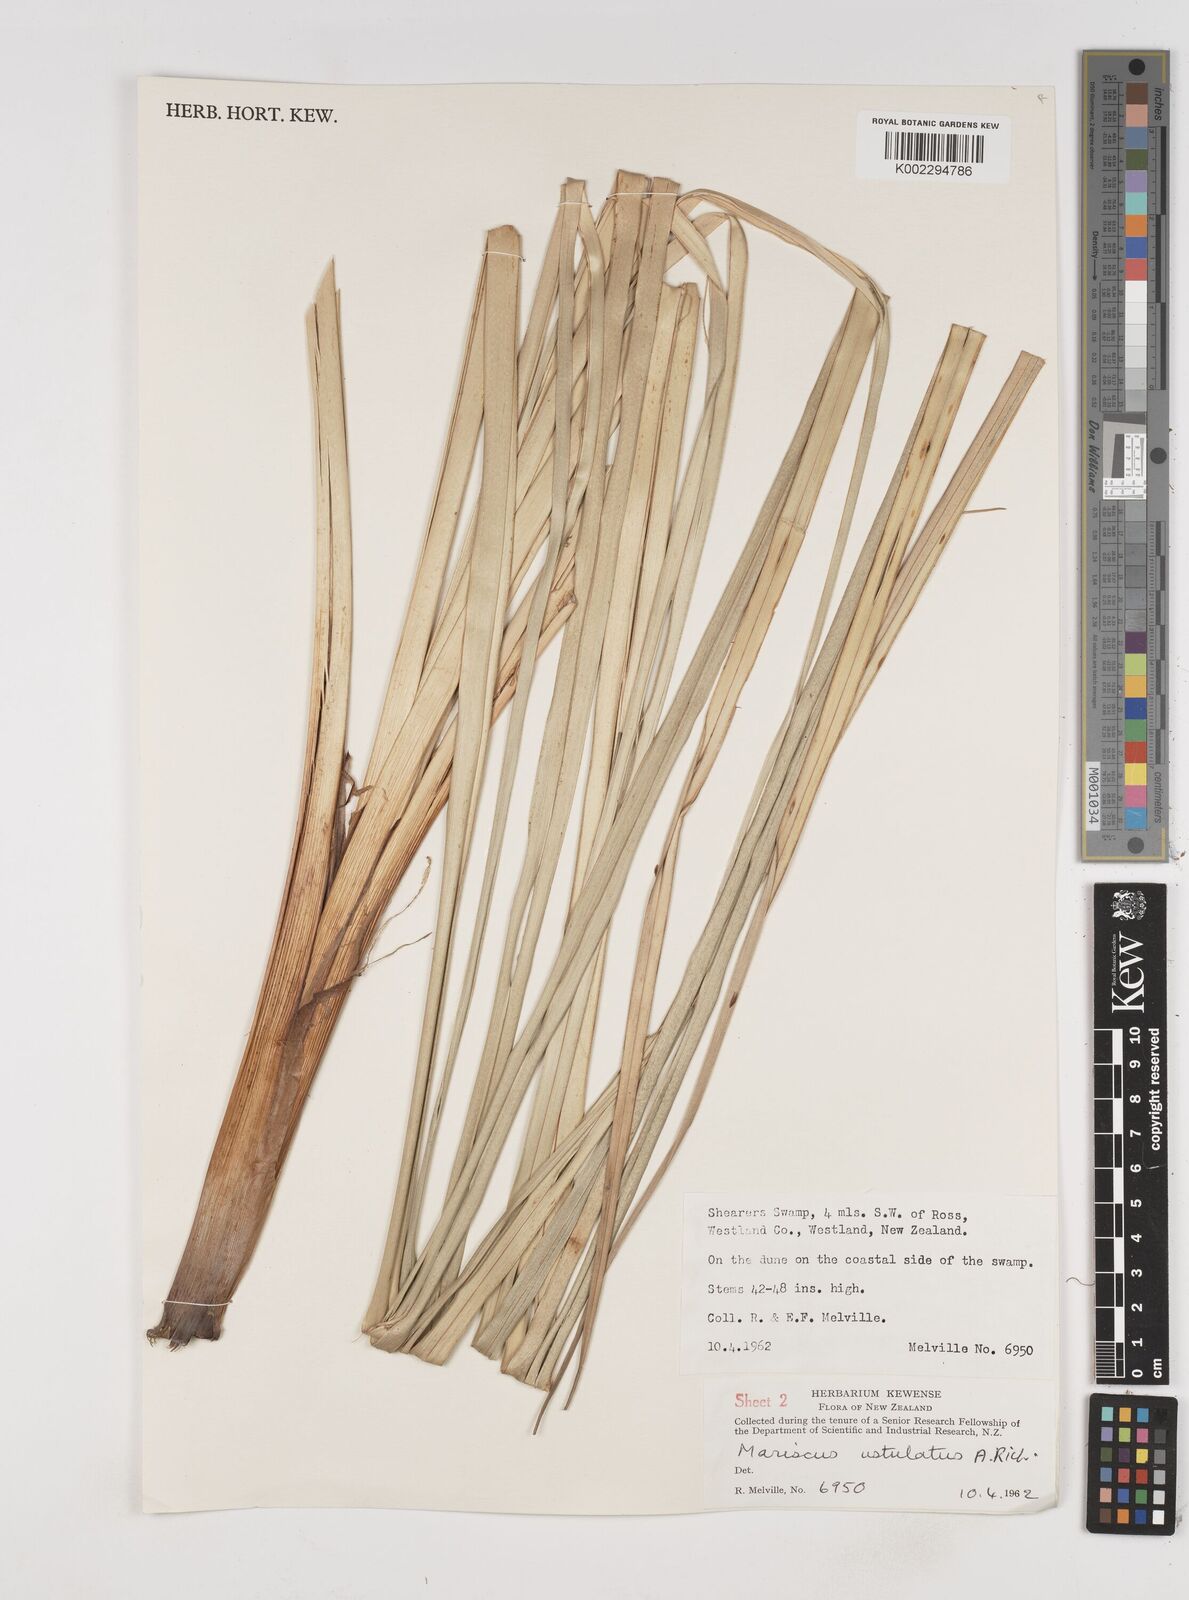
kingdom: Plantae
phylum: Tracheophyta
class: Liliopsida
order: Poales
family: Cyperaceae
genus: Cyperus
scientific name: Cyperus ustulatus
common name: Giant umbrella-sedge
